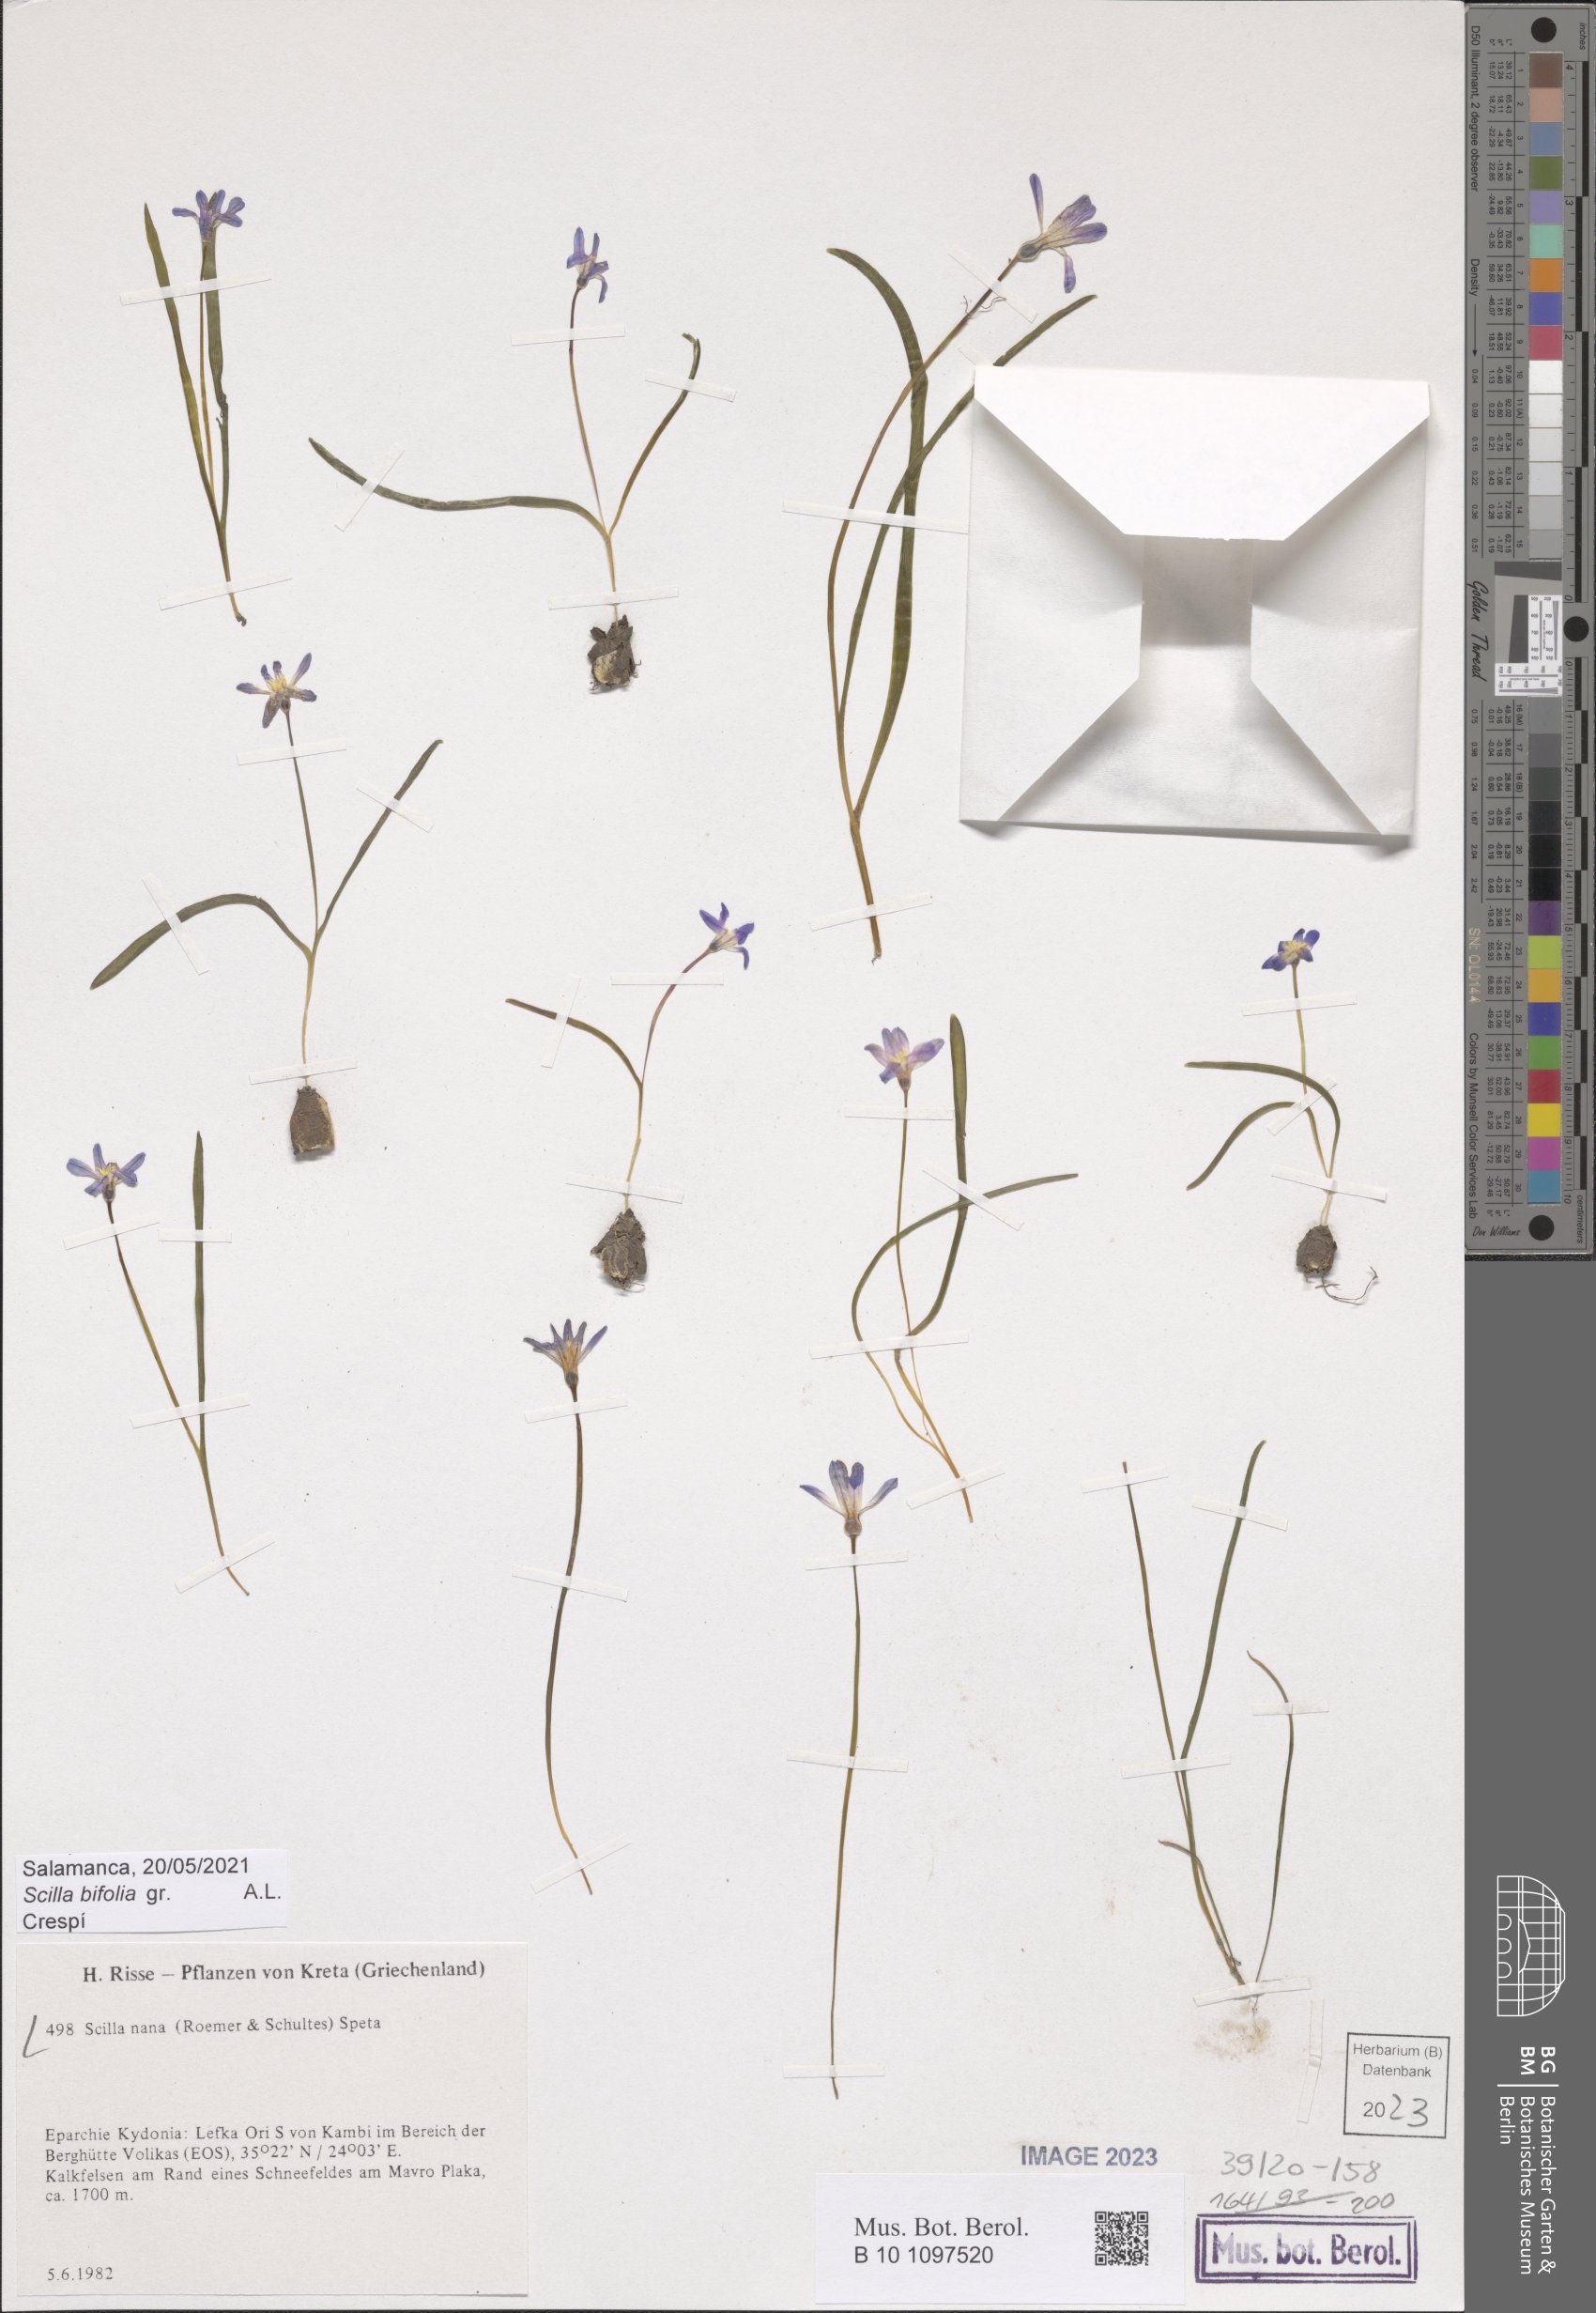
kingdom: Plantae
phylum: Tracheophyta
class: Liliopsida
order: Asparagales
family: Asparagaceae
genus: Scilla
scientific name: Scilla nana
